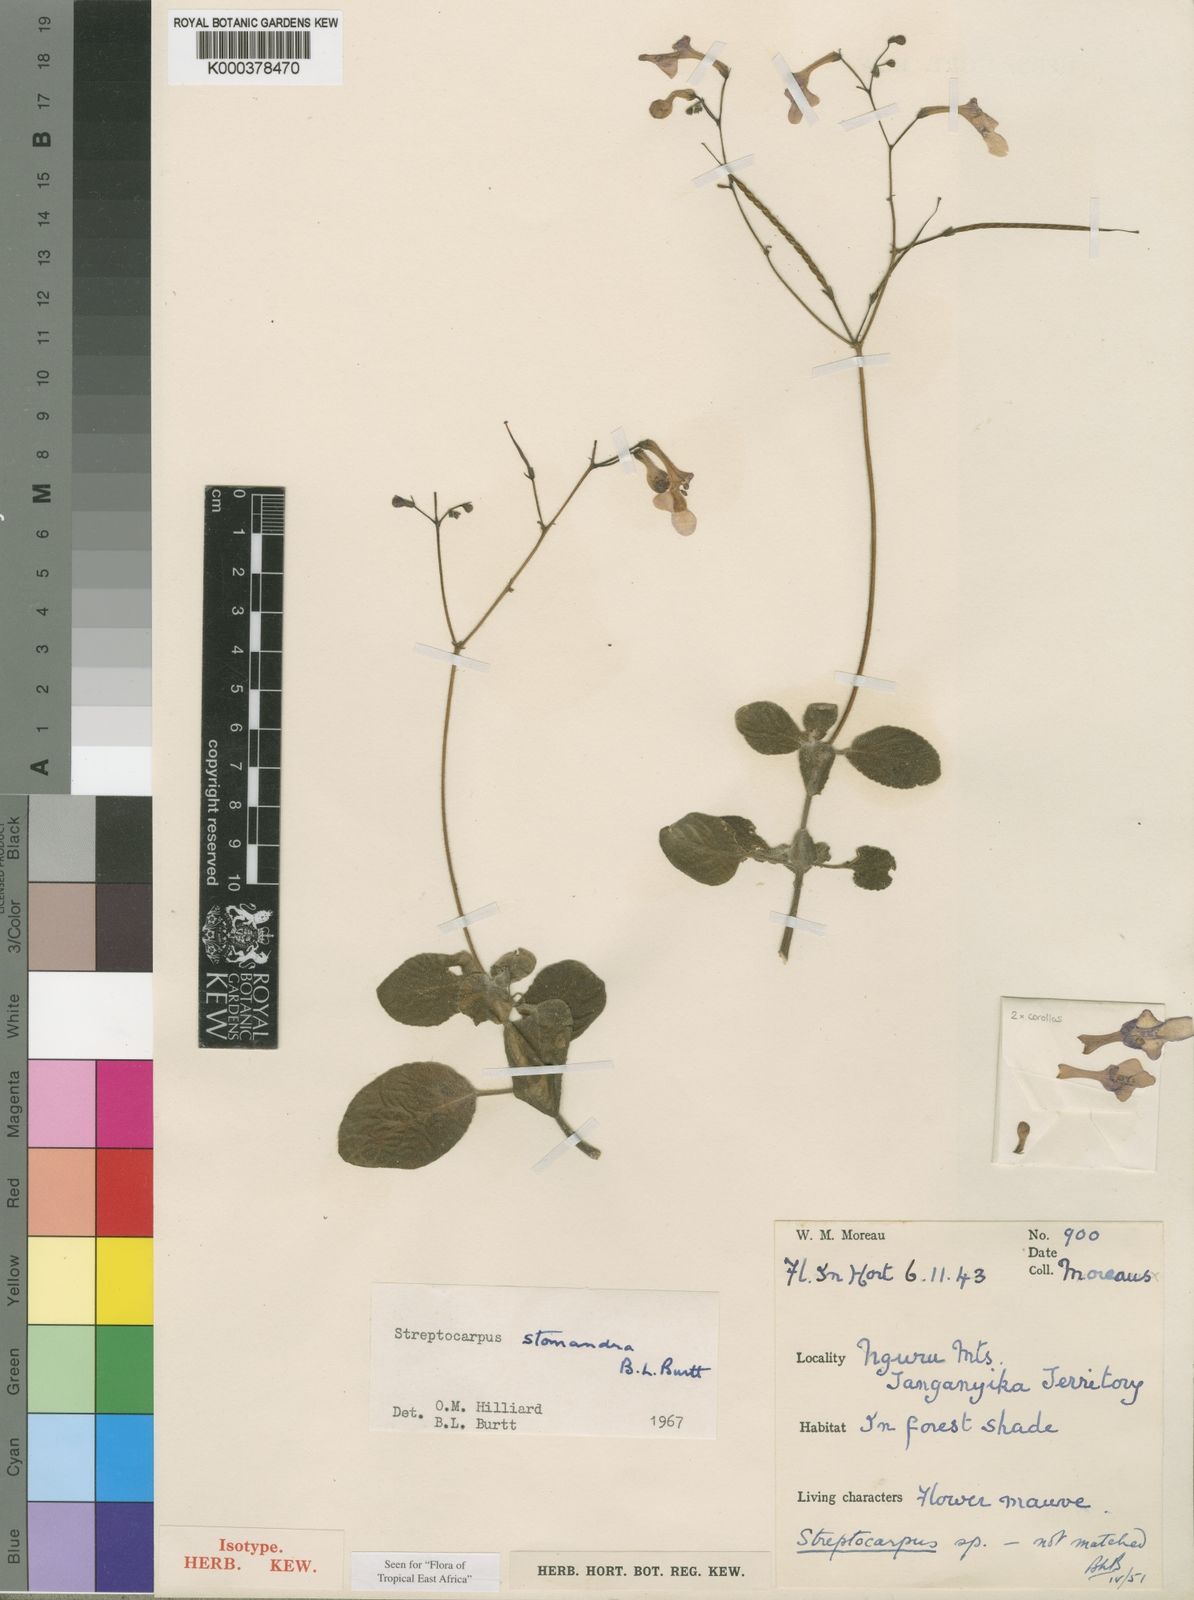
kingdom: Plantae
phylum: Tracheophyta
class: Magnoliopsida
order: Lamiales
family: Gesneriaceae
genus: Streptocarpus
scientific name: Streptocarpus stomandra
